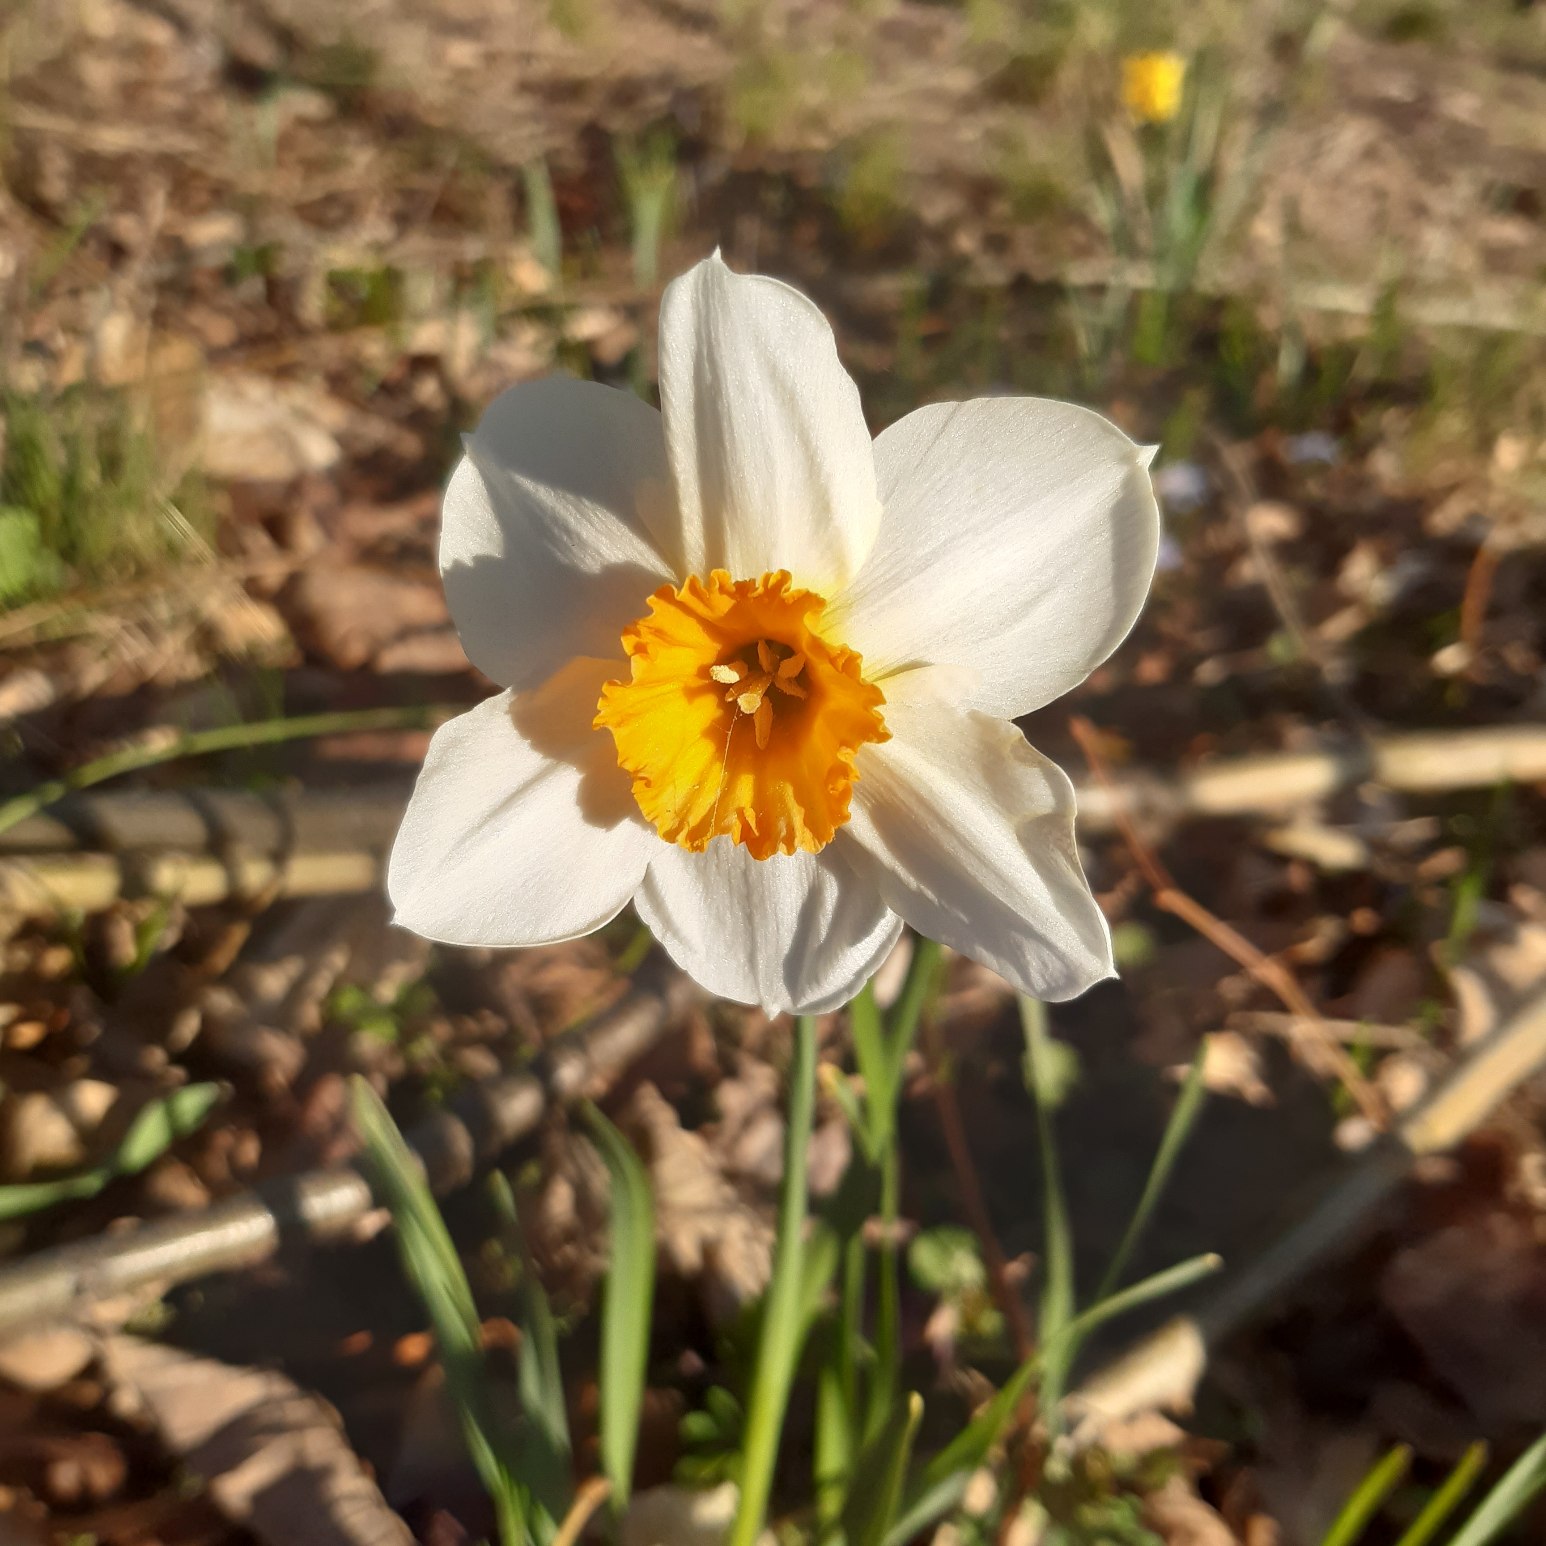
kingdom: Plantae
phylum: Tracheophyta
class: Liliopsida
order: Asparagales
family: Amaryllidaceae
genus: Narcissus
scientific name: Narcissus
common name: Narcisslægten
